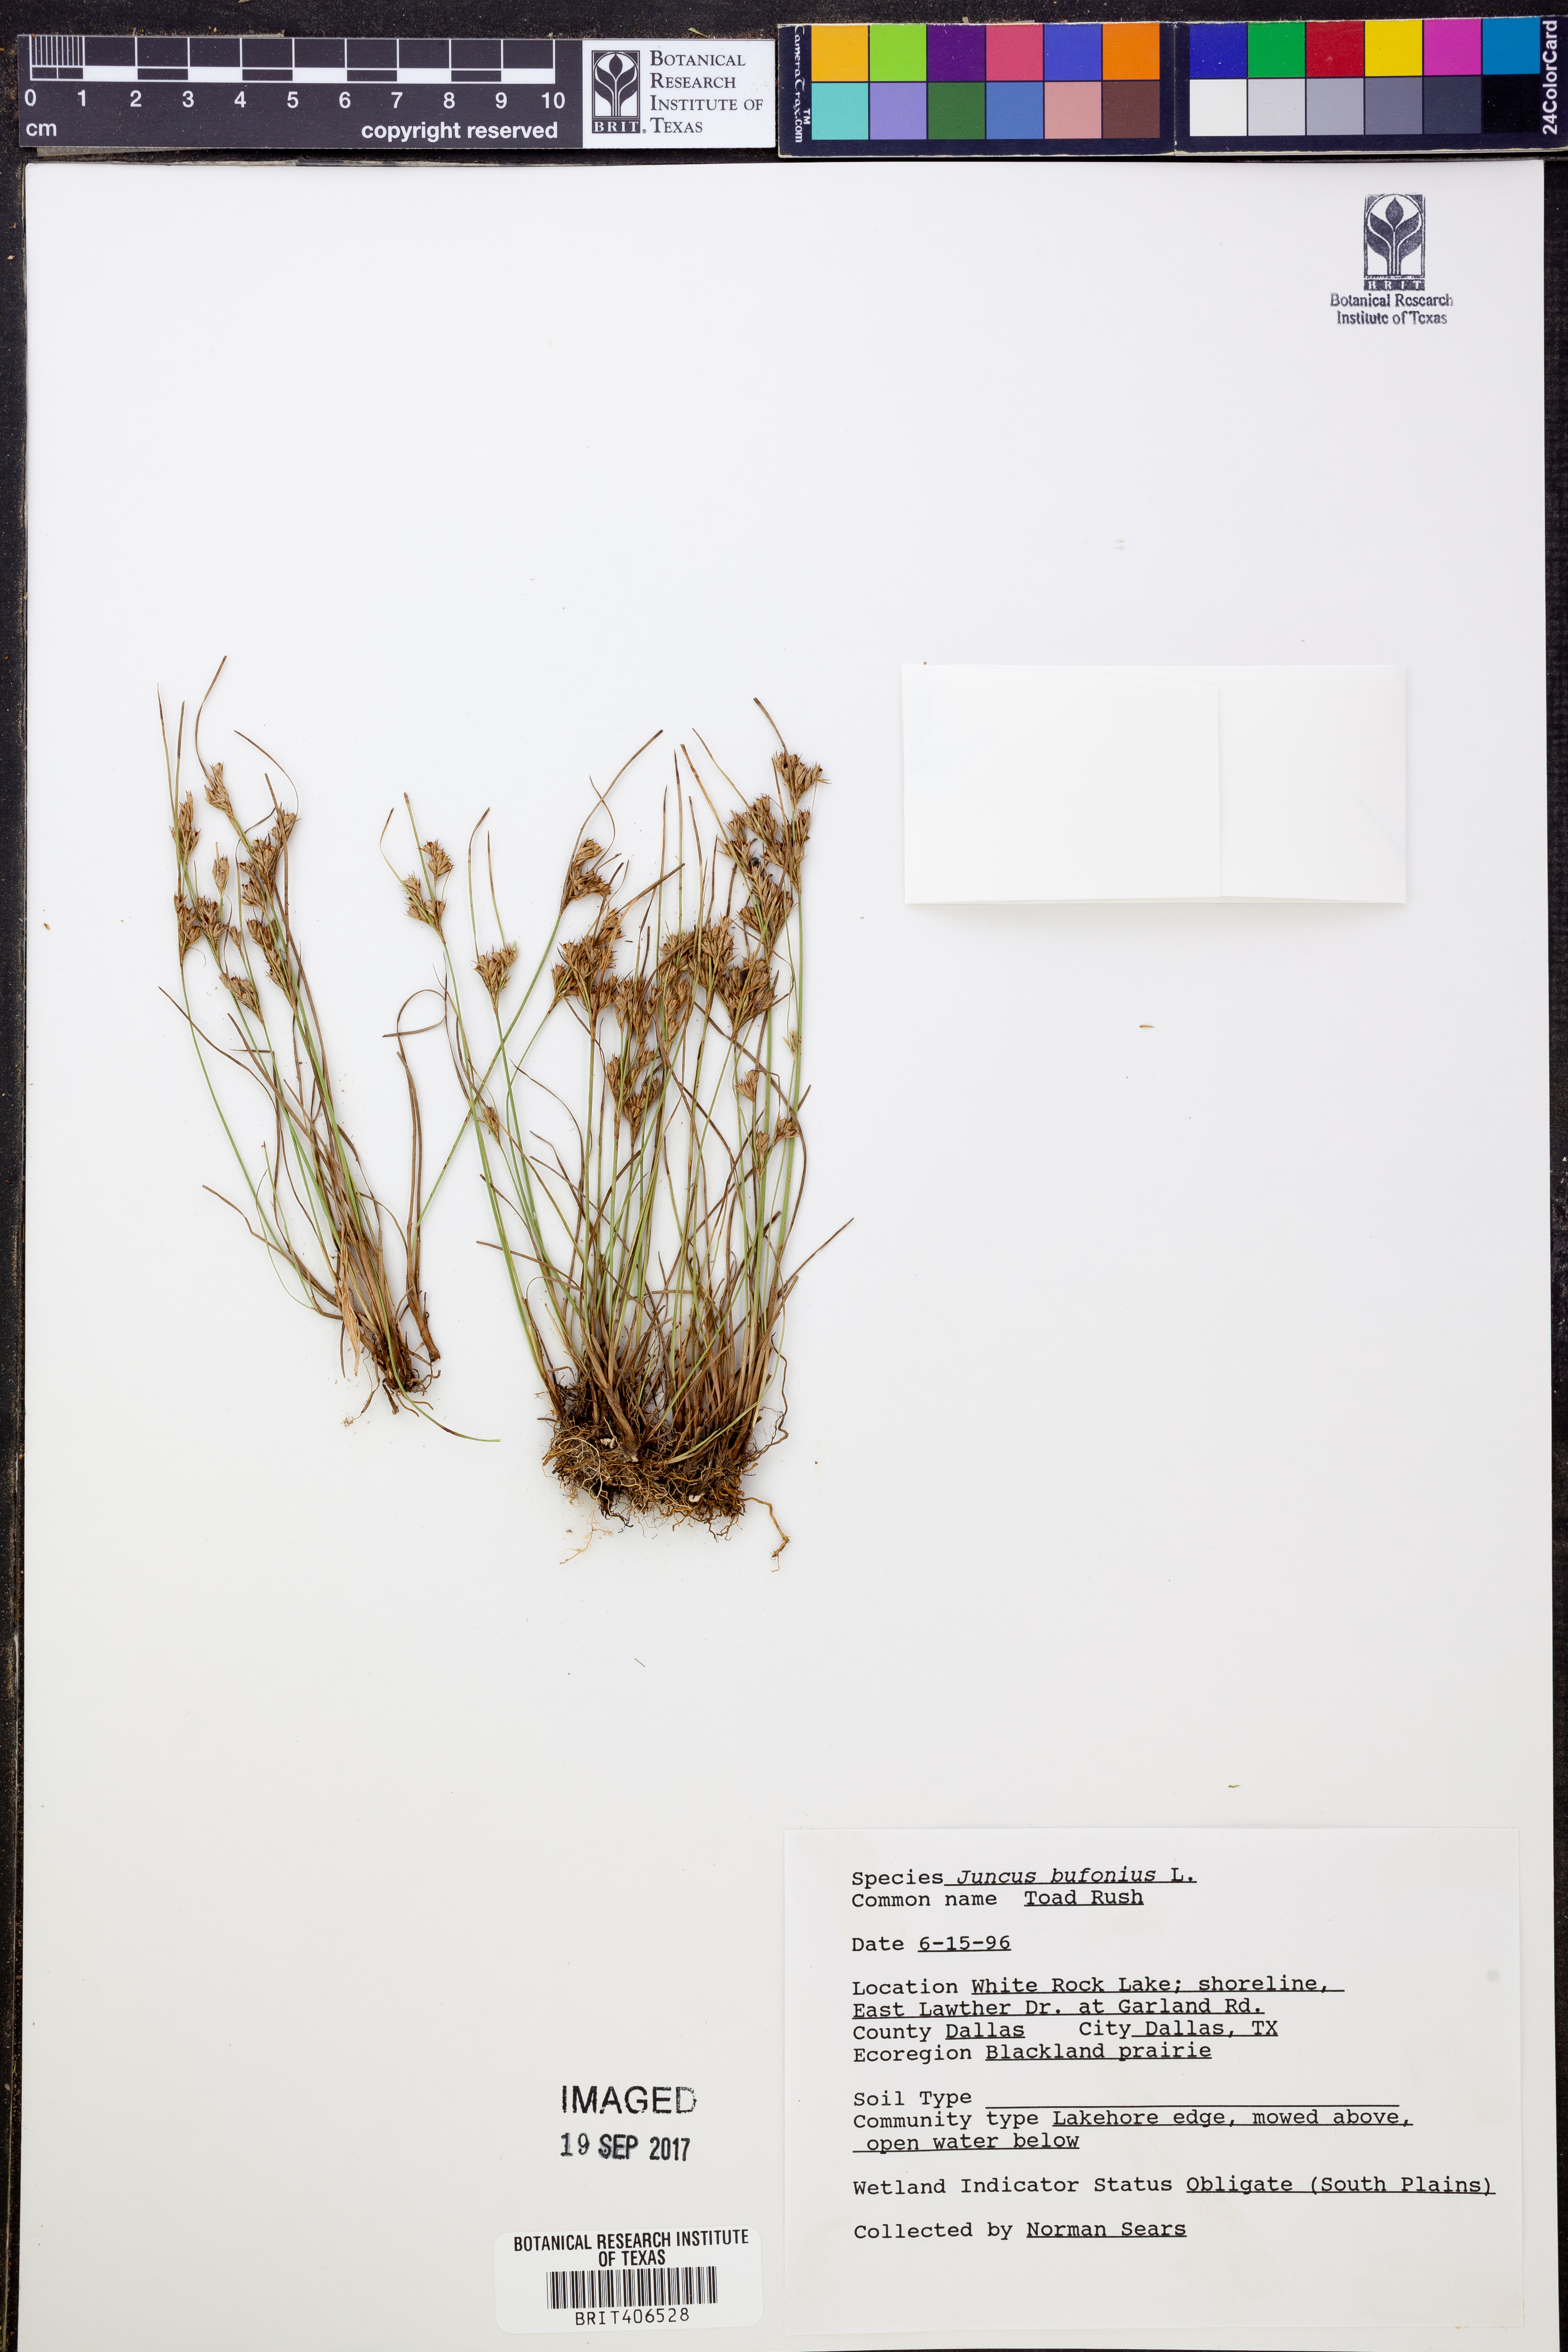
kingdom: Plantae
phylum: Tracheophyta
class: Liliopsida
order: Poales
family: Juncaceae
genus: Juncus
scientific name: Juncus bufonius
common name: Toad rush
